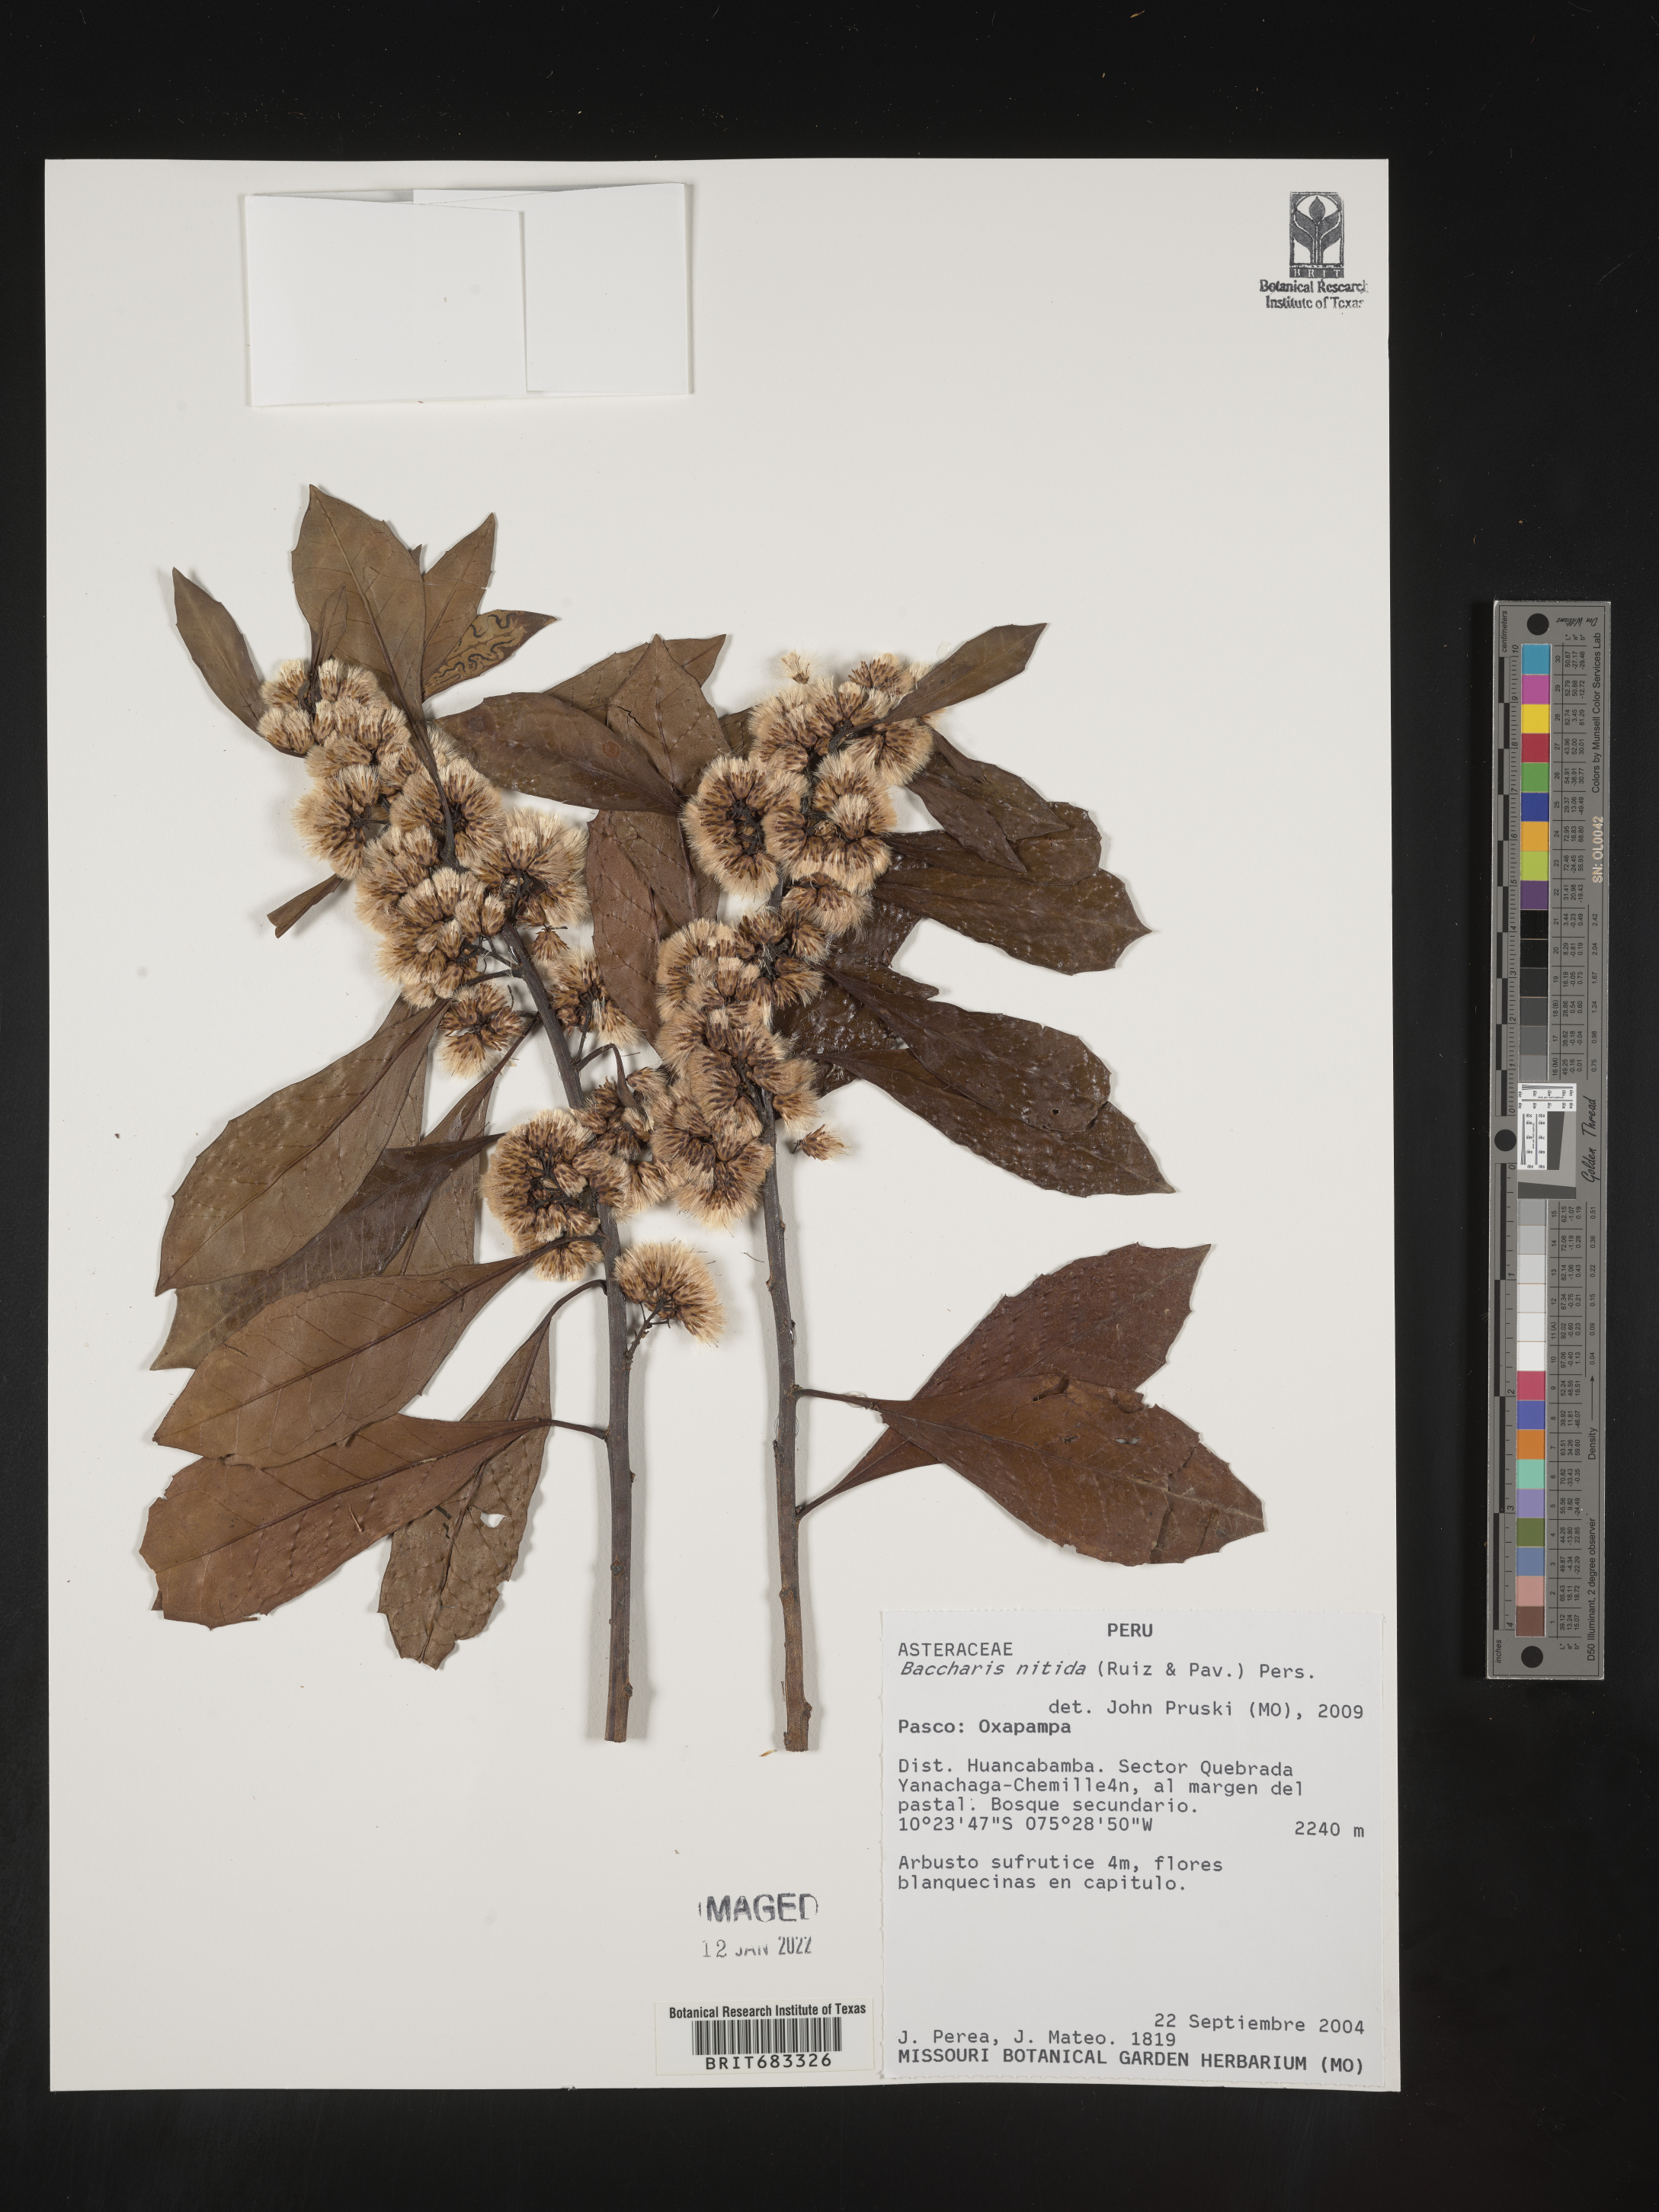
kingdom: Plantae
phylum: Tracheophyta
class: Magnoliopsida
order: Asterales
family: Asteraceae
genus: Baccharis
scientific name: Baccharis
